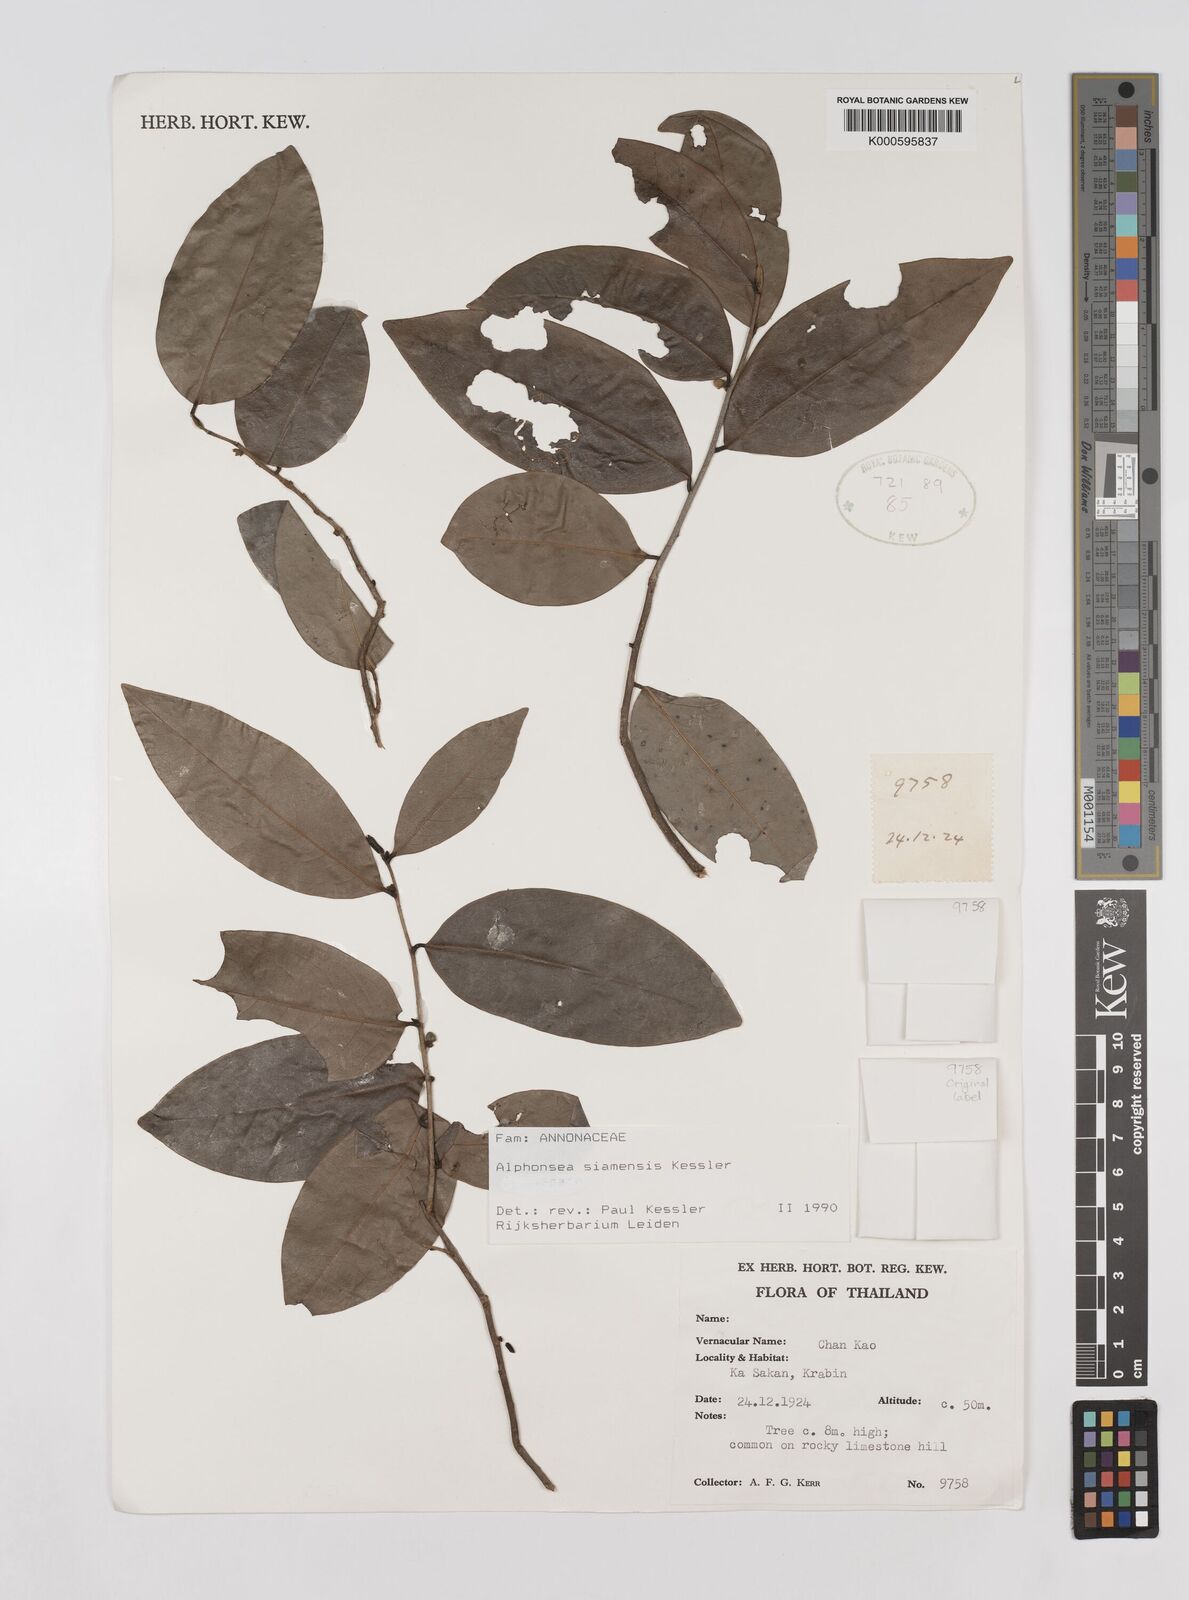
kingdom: Plantae
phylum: Tracheophyta
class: Magnoliopsida
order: Magnoliales
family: Annonaceae
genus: Alphonsea
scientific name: Alphonsea siamensis
